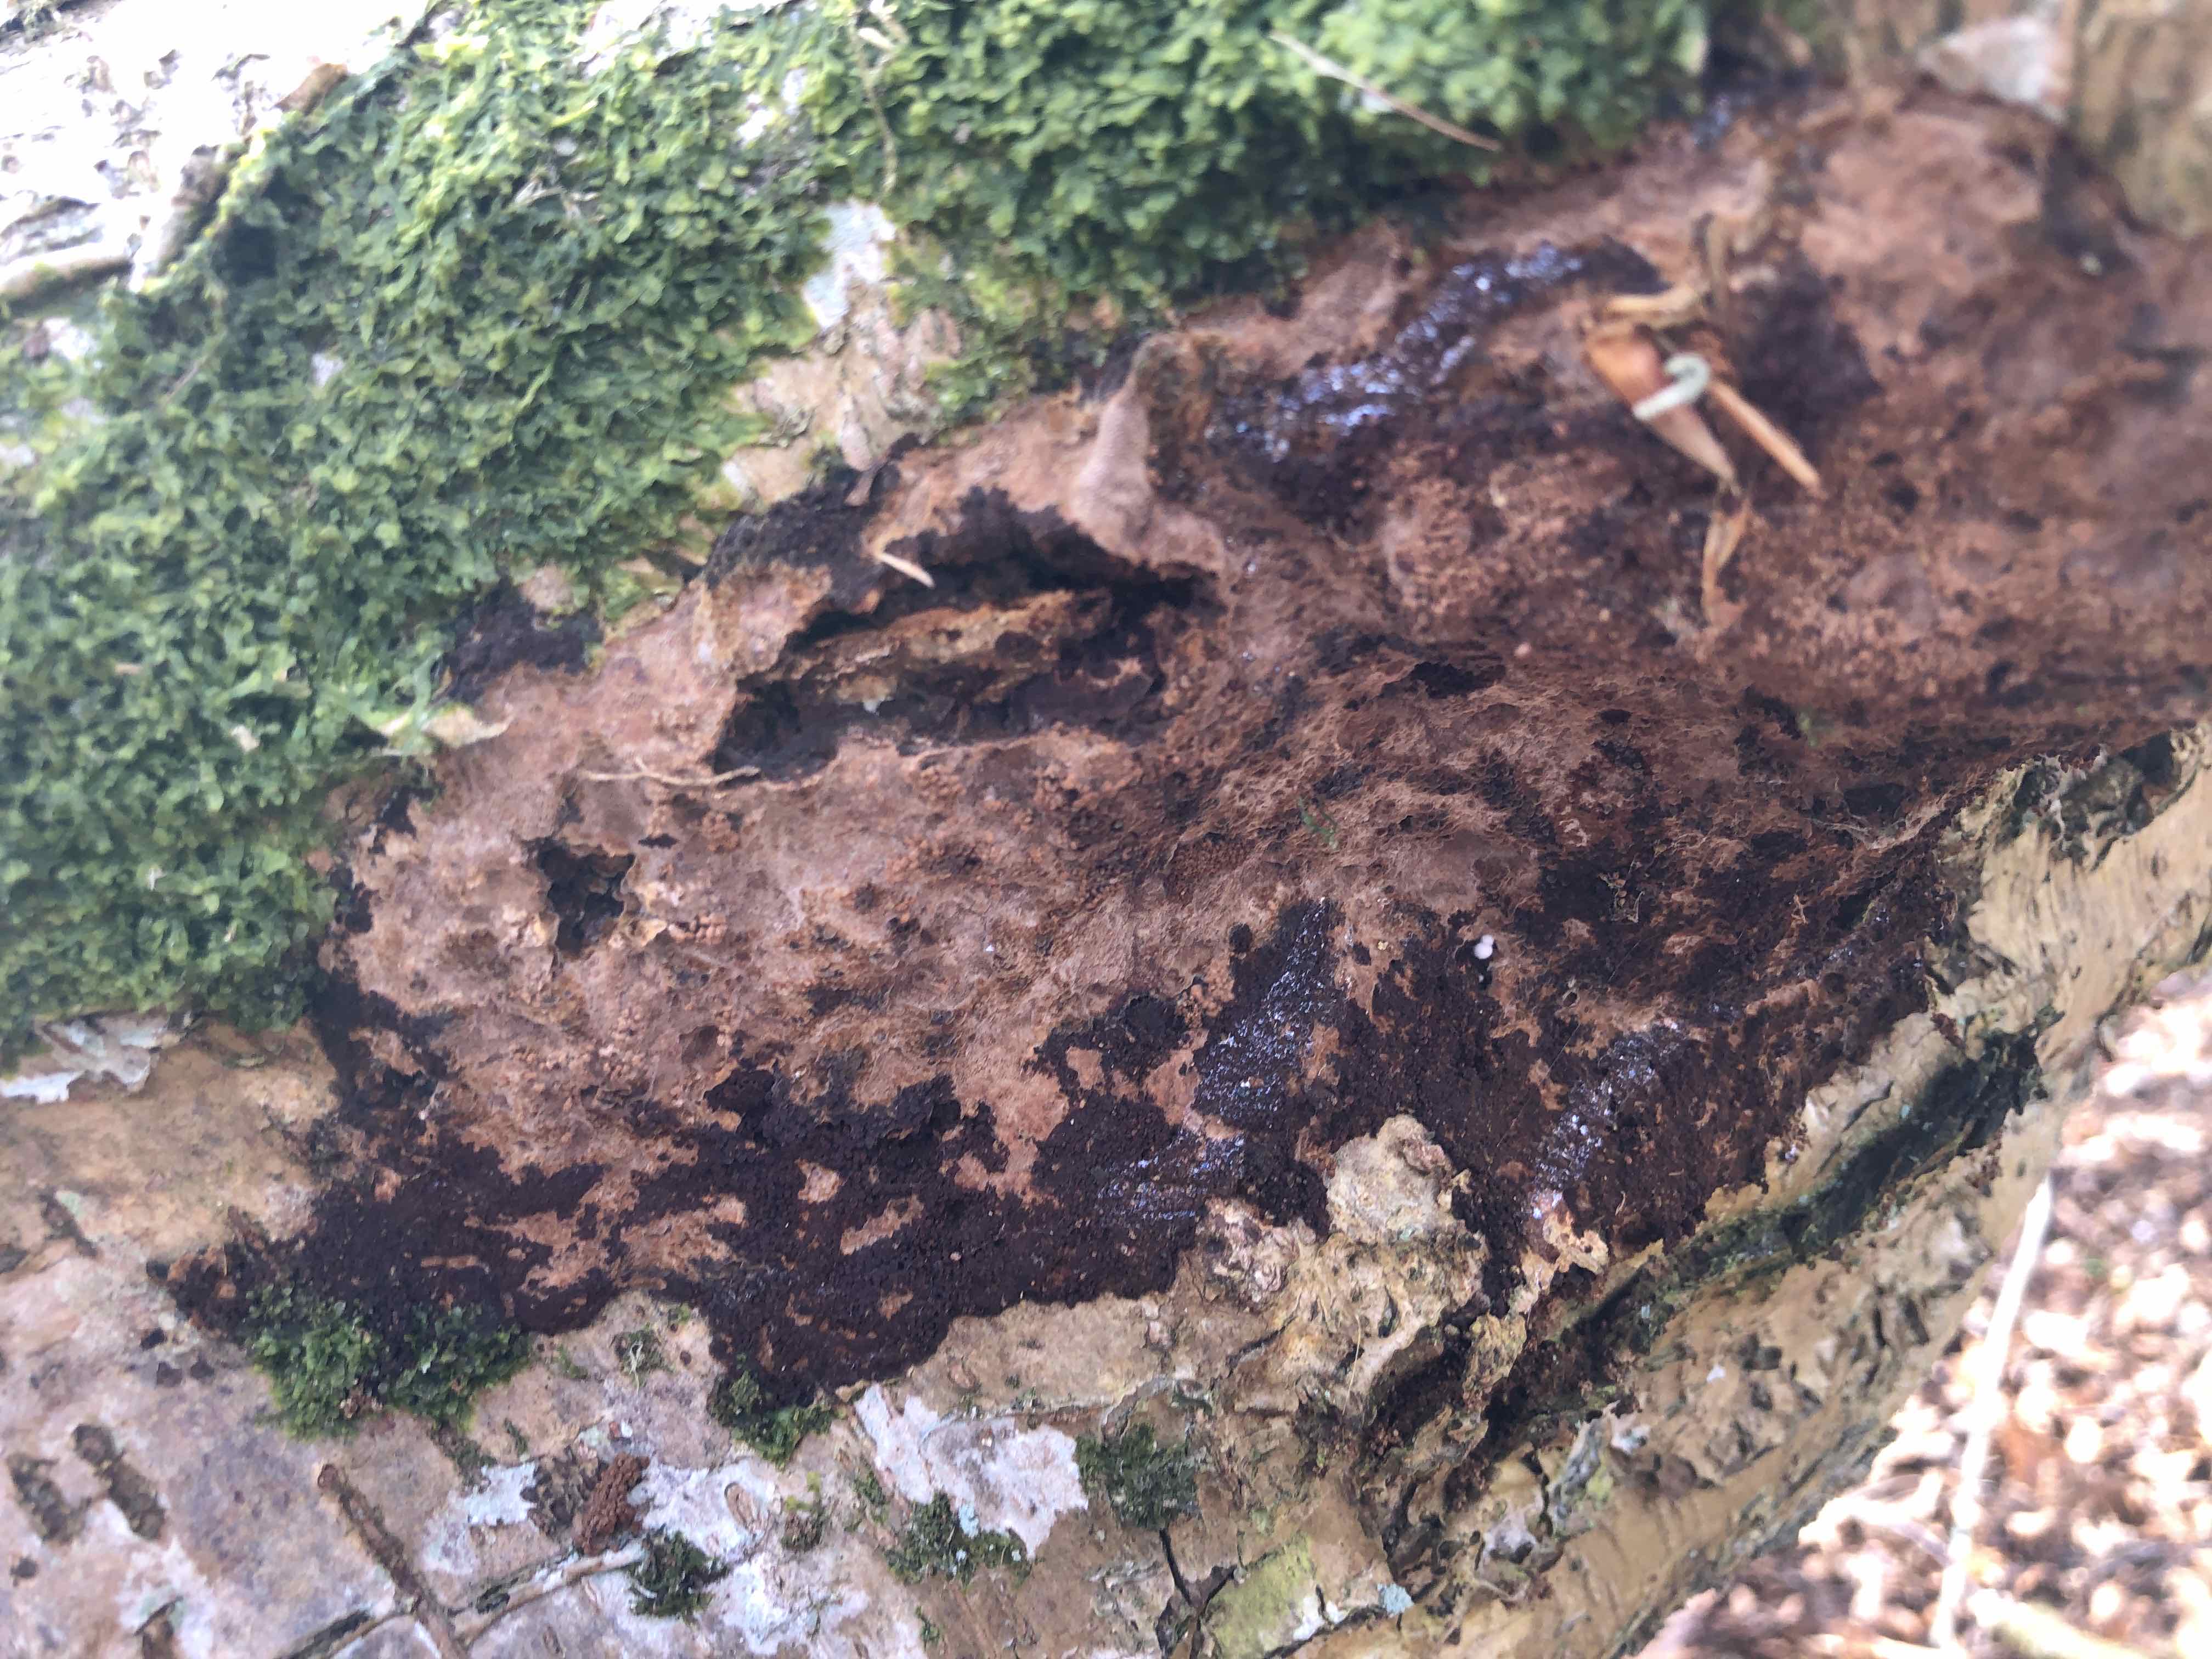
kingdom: Fungi
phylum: Basidiomycota
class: Agaricomycetes
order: Hymenochaetales
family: Hymenochaetaceae
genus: Fuscoporia
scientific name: Fuscoporia ferruginosa
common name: rustbrun ildporesvamp
